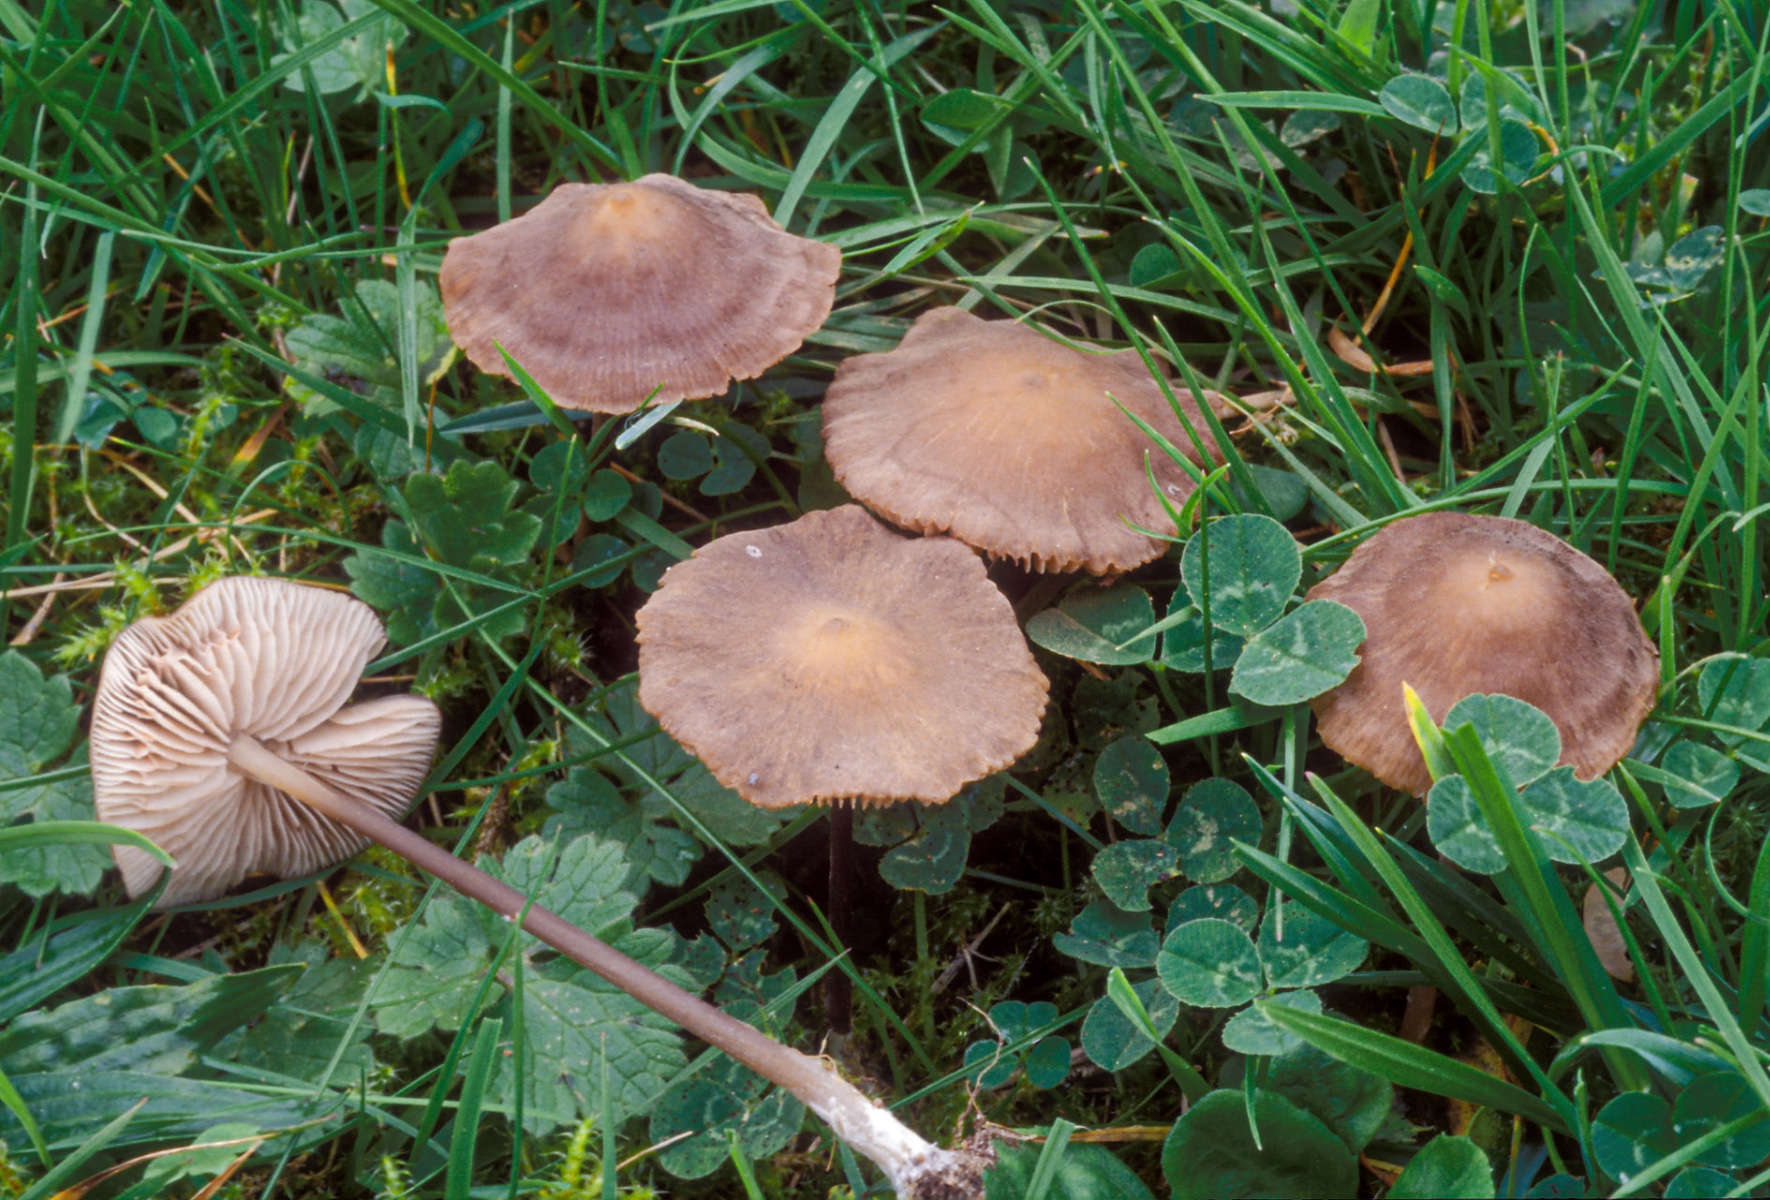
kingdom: Fungi
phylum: Basidiomycota
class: Agaricomycetes
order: Agaricales
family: Entolomataceae
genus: Entoloma
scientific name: Entoloma
